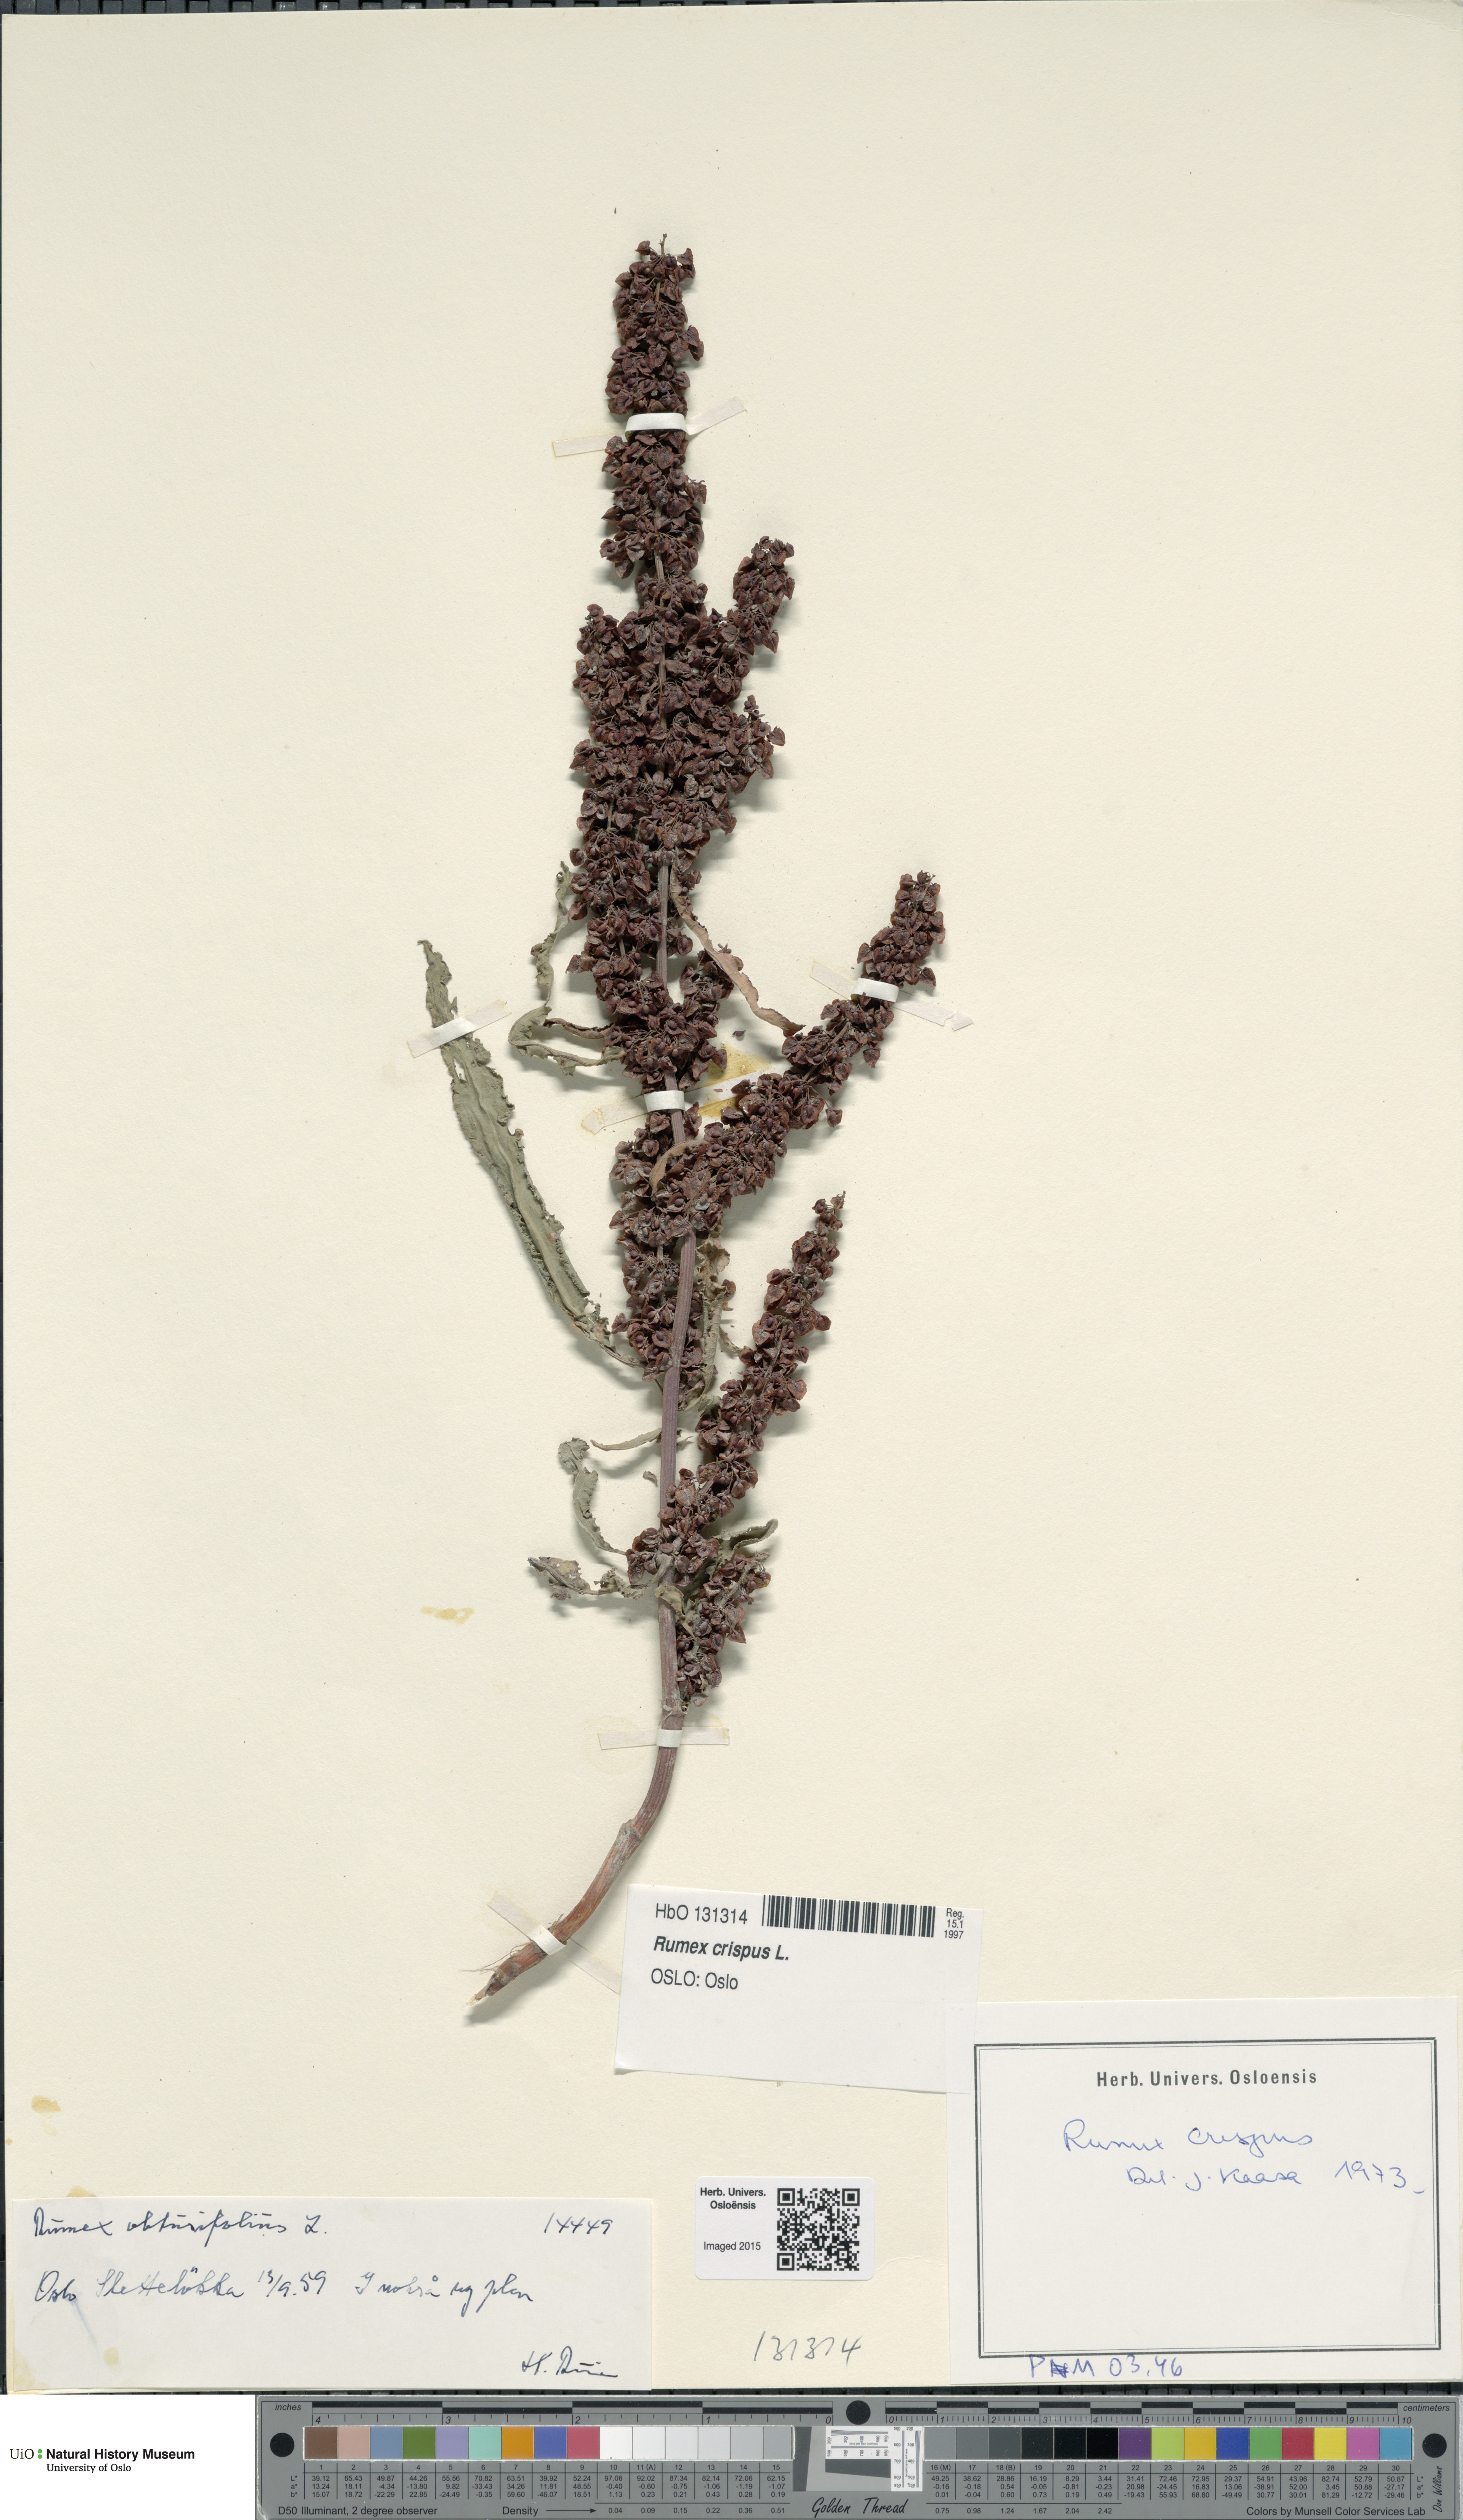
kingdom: Plantae
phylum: Tracheophyta
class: Magnoliopsida
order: Caryophyllales
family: Polygonaceae
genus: Rumex
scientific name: Rumex crispus
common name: Curled dock
